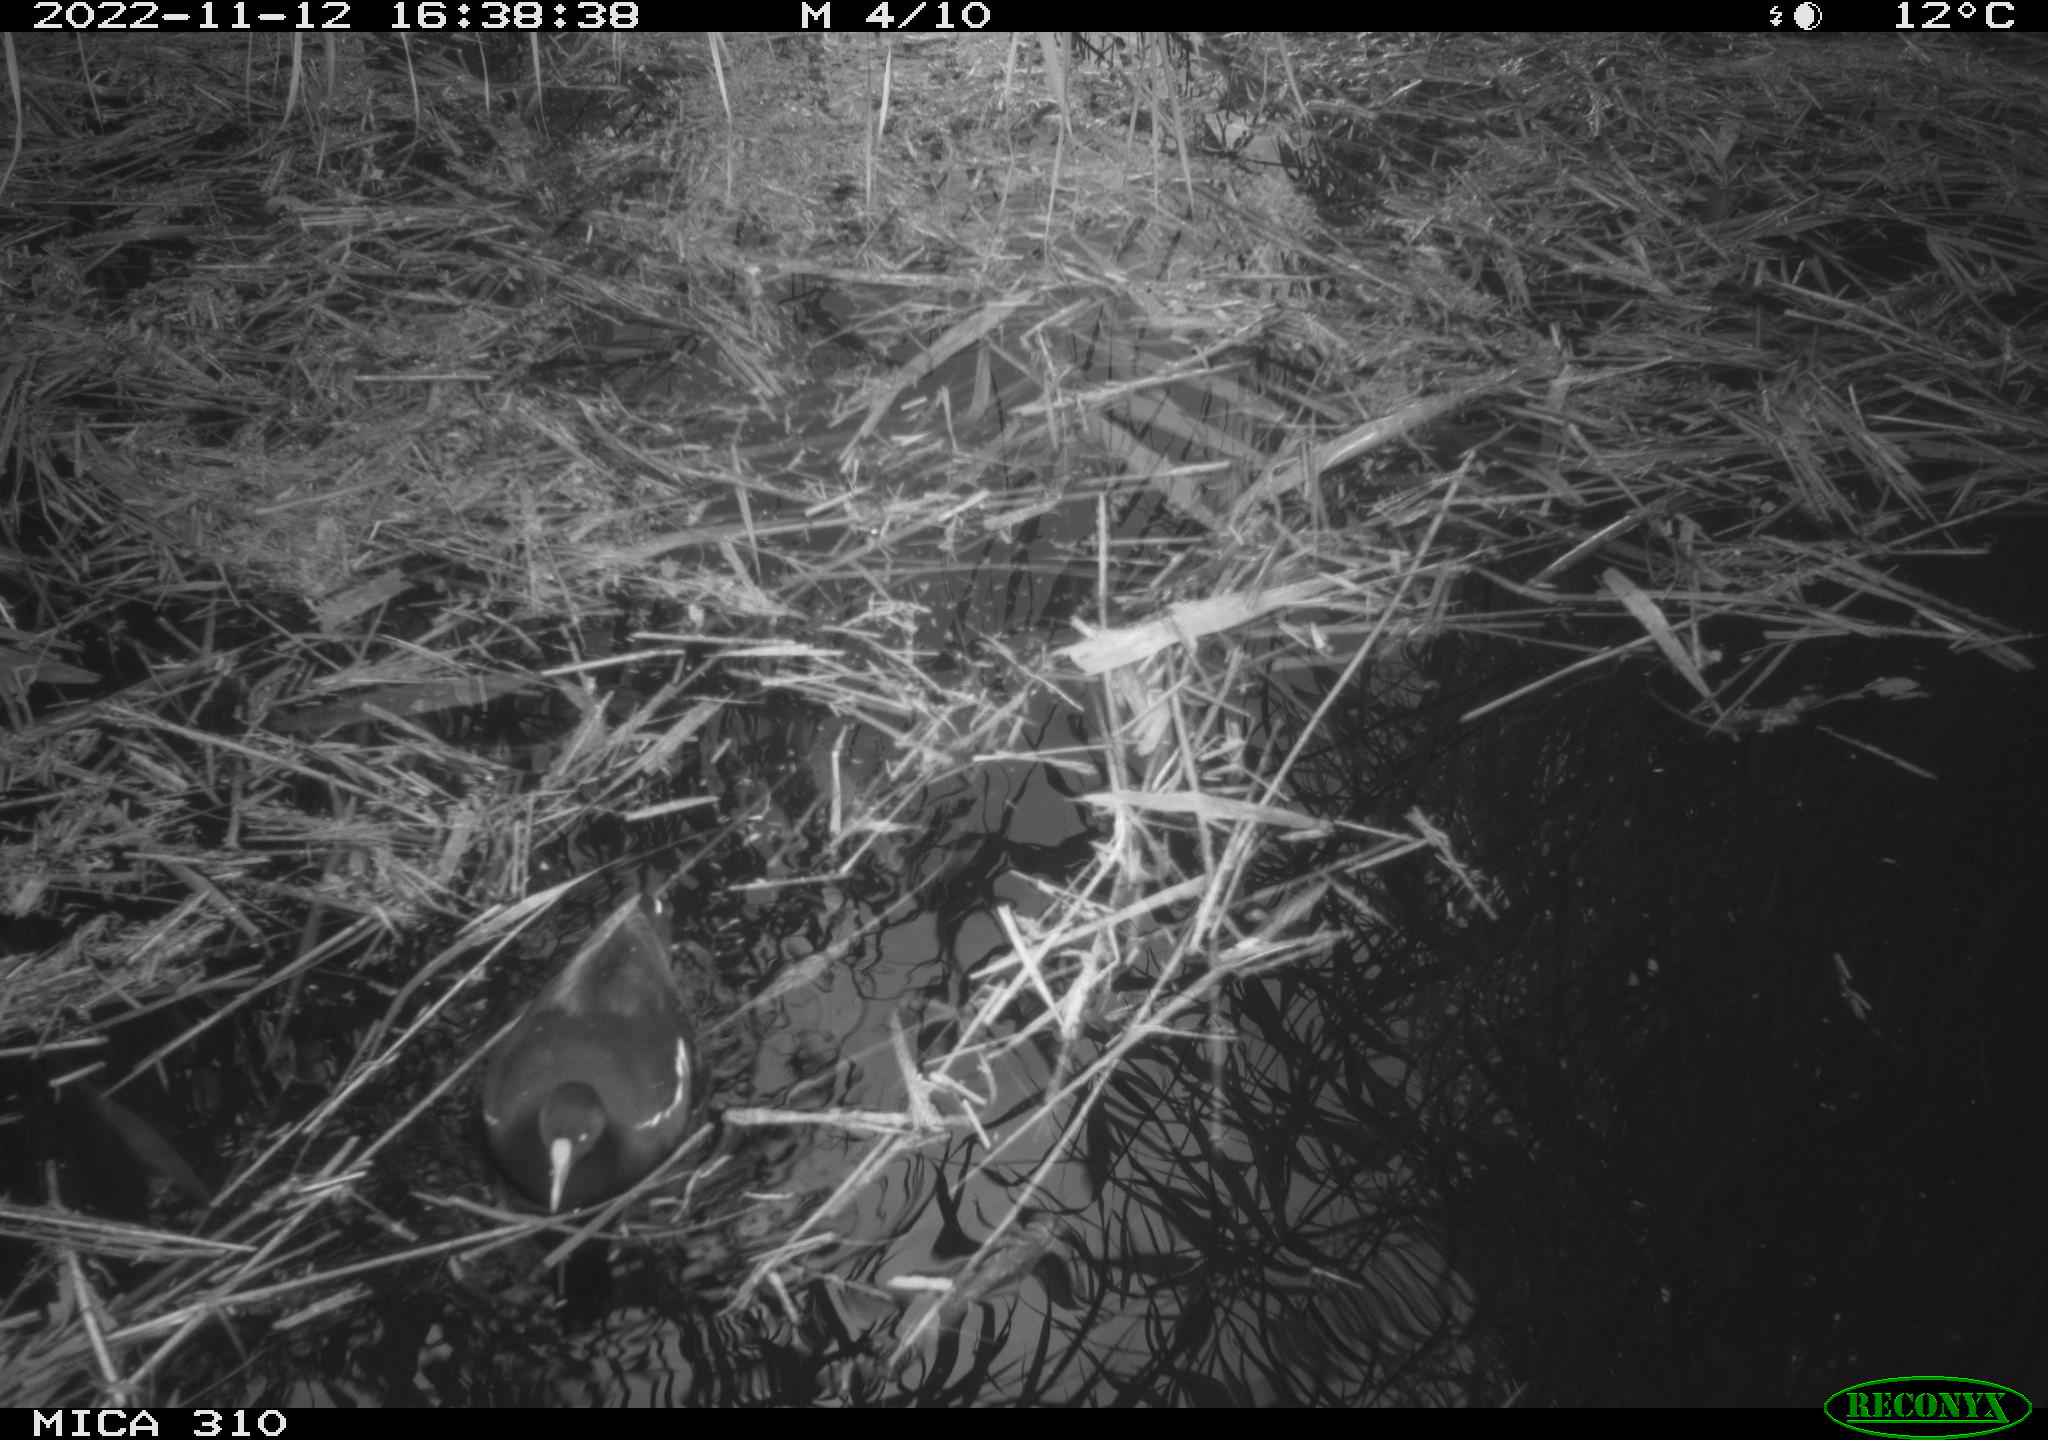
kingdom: Animalia
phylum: Chordata
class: Aves
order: Gruiformes
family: Rallidae
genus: Gallinula
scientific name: Gallinula chloropus
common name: Common moorhen
